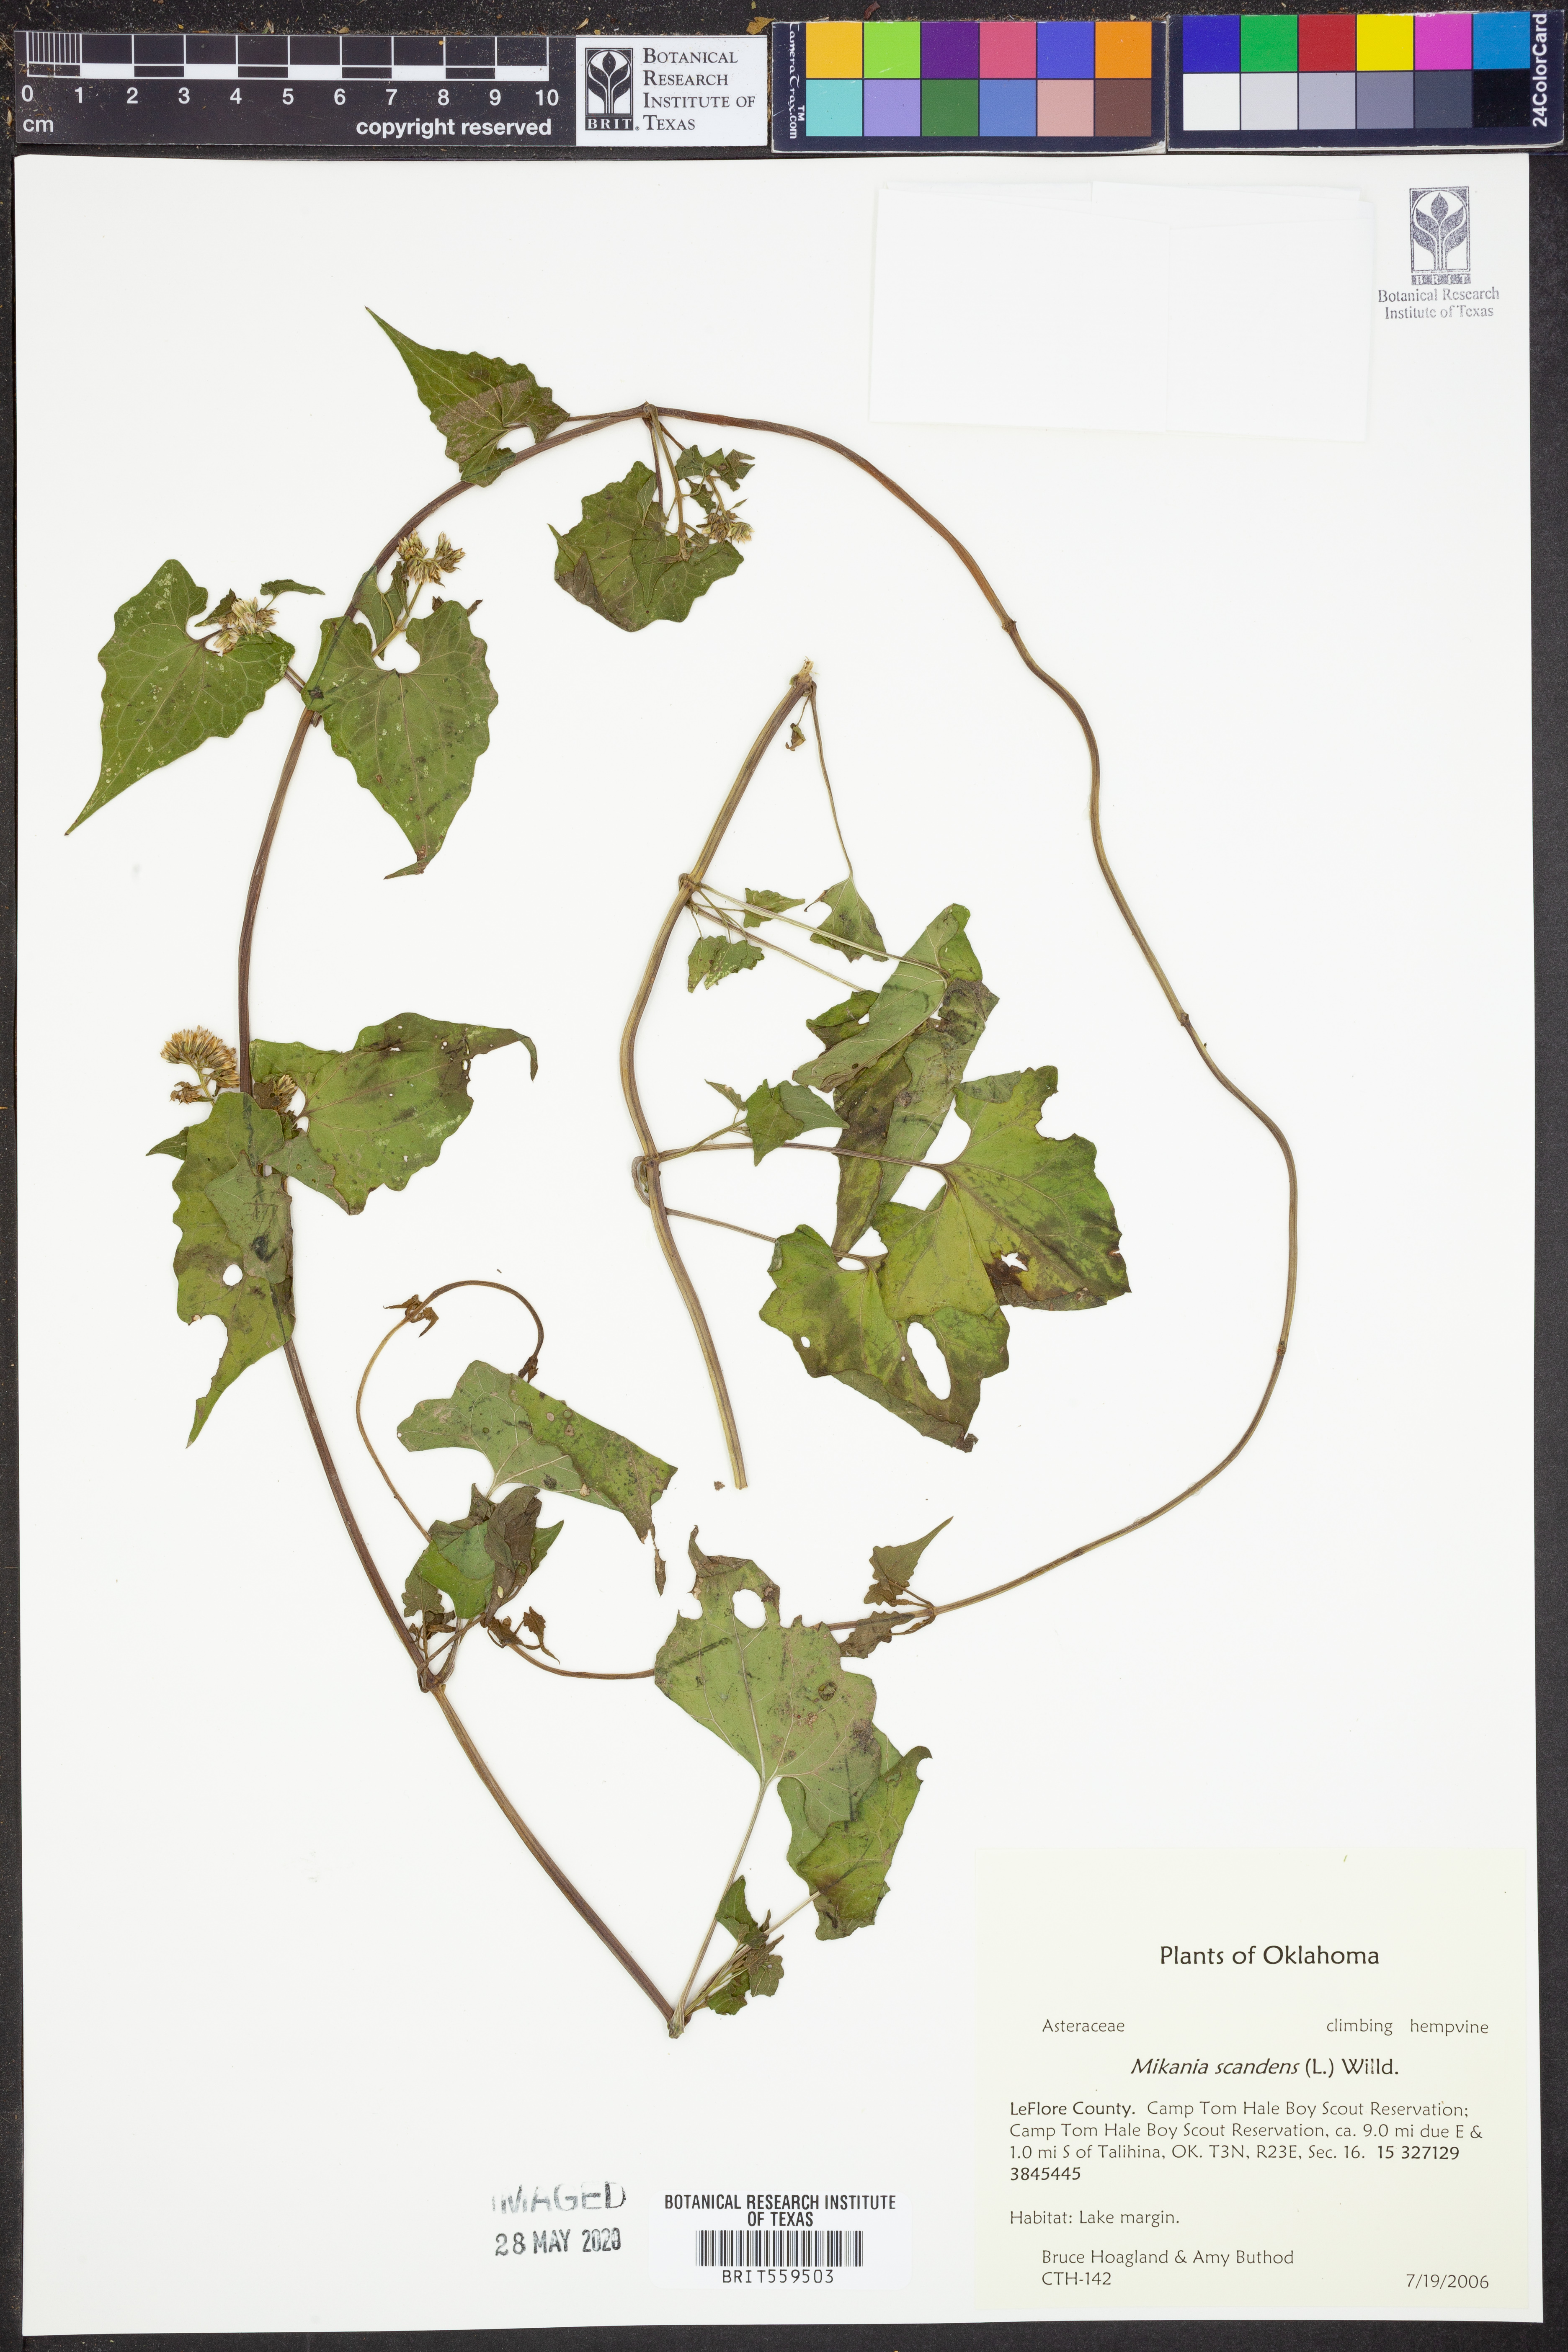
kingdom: Plantae
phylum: Tracheophyta
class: Magnoliopsida
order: Asterales
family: Asteraceae
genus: Mikania
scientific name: Mikania scandens
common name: Climbing hempvine
